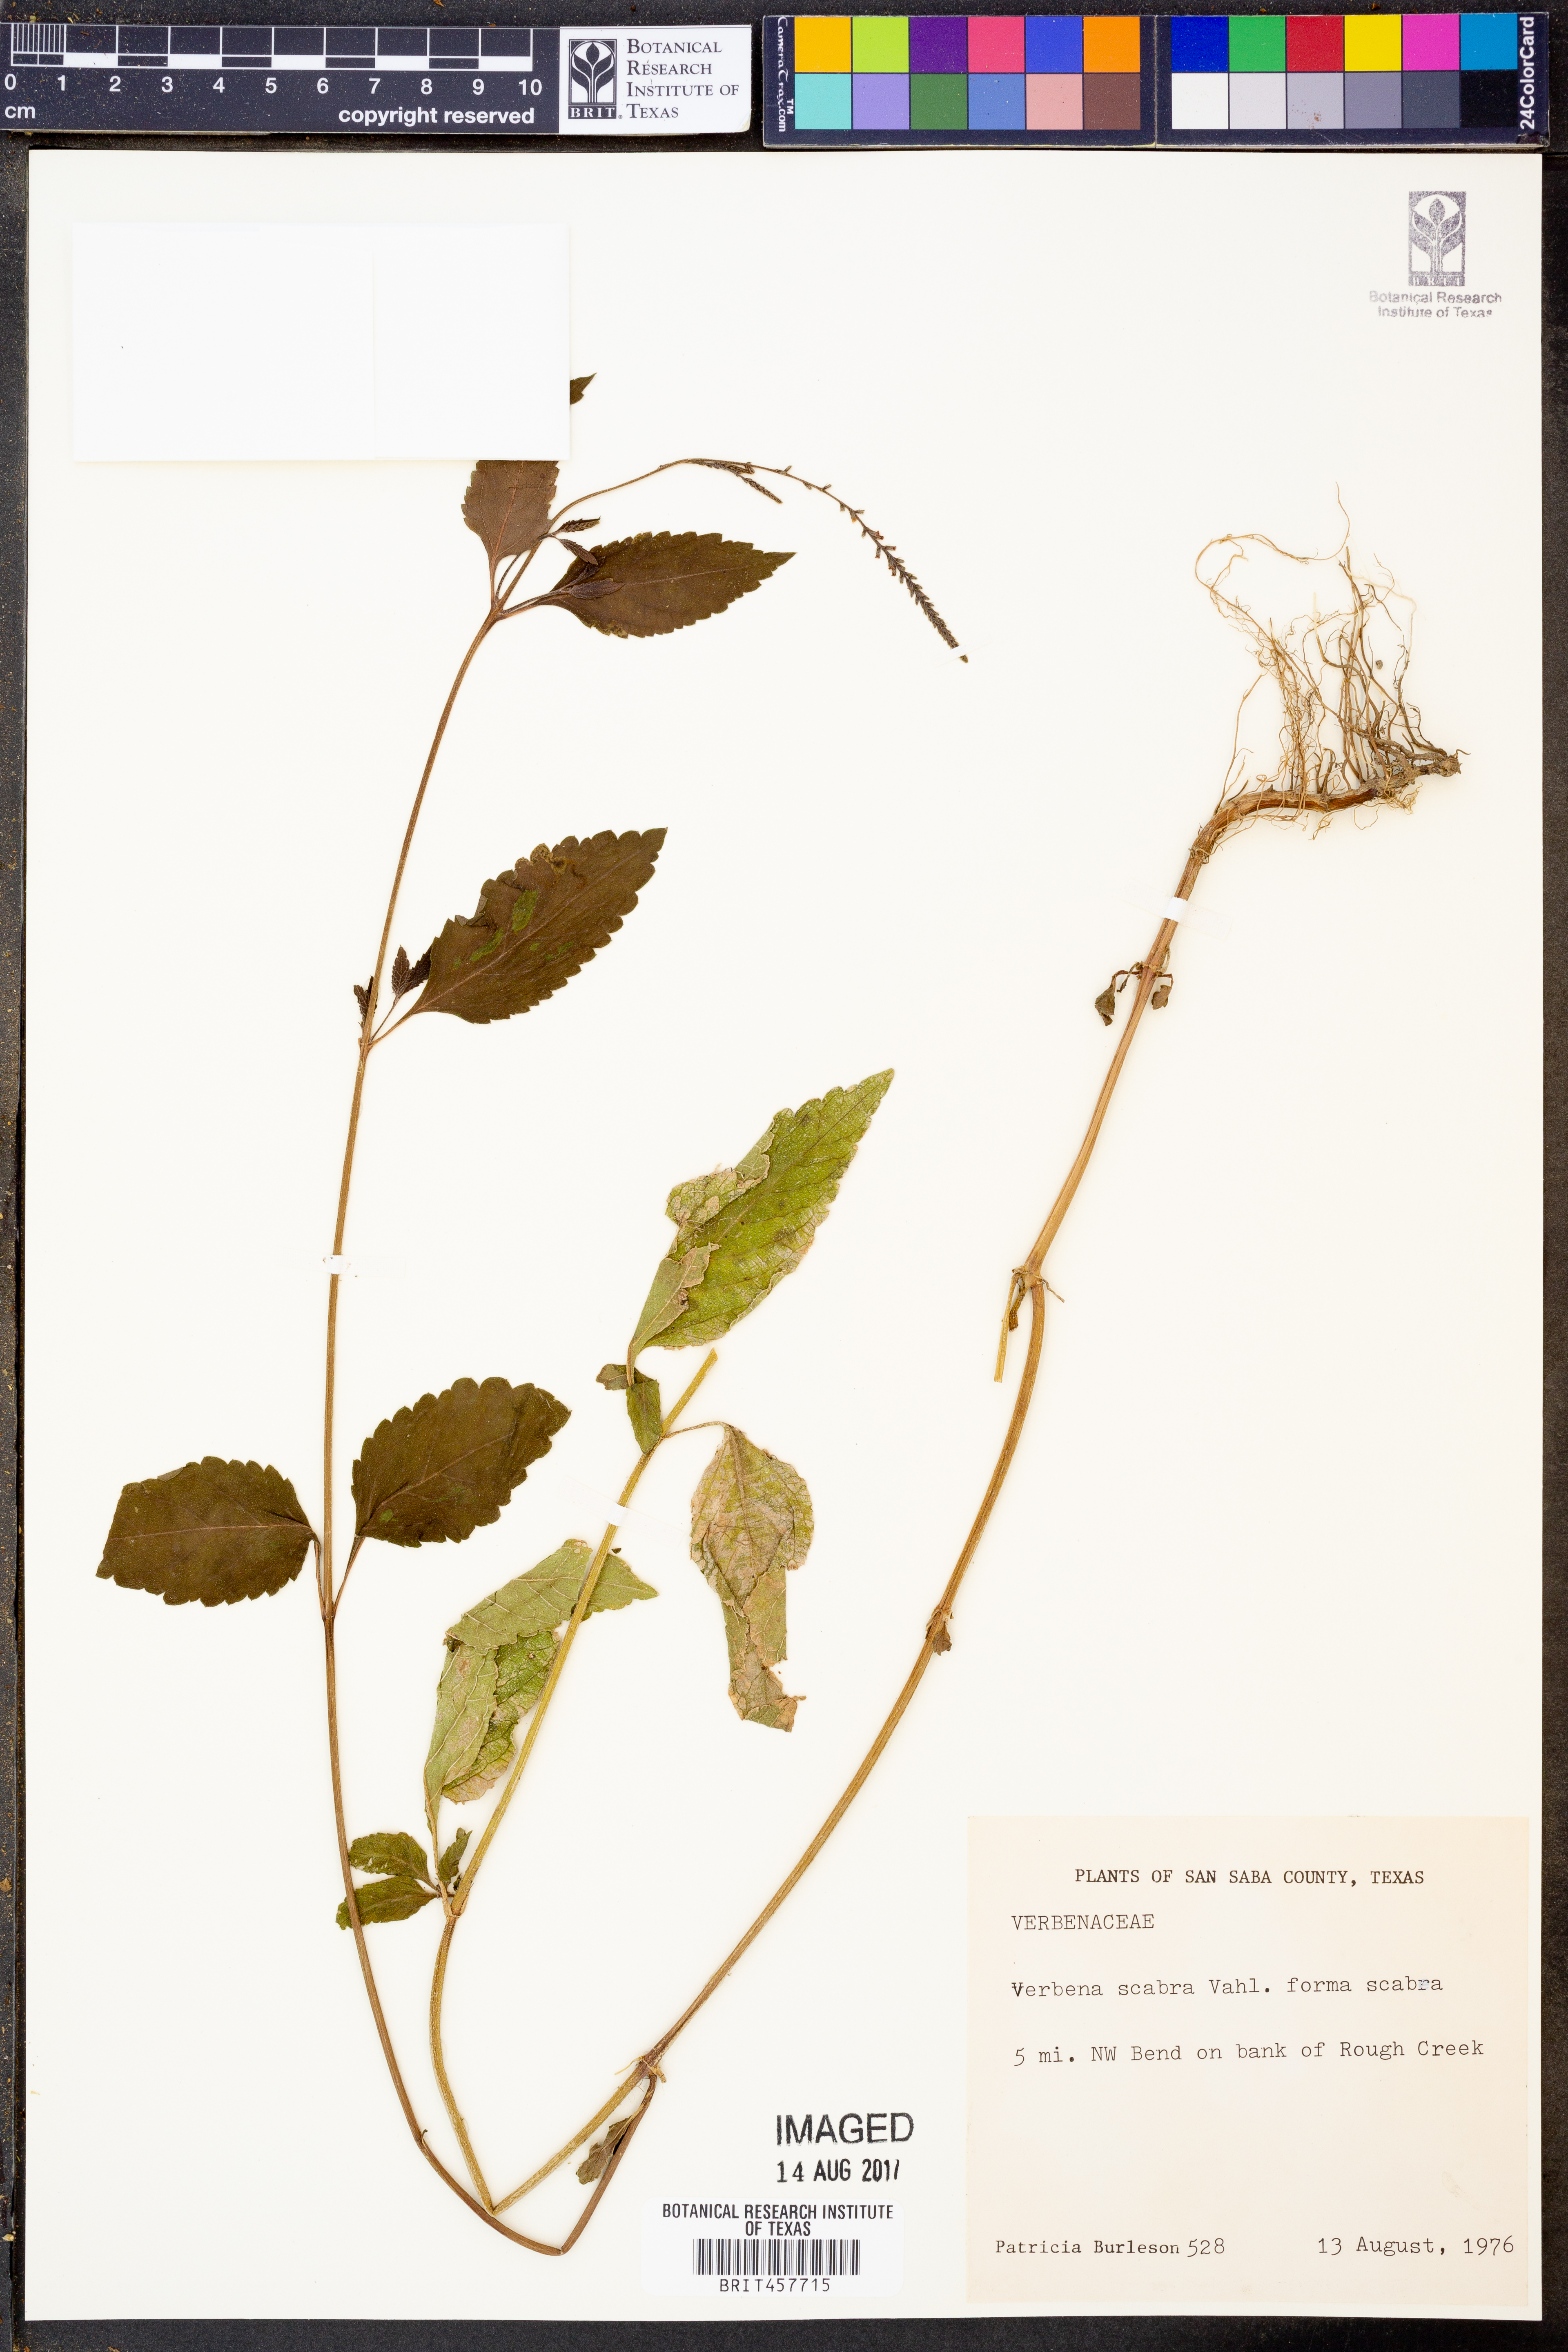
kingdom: Plantae
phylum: Tracheophyta
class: Magnoliopsida
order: Lamiales
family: Verbenaceae
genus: Verbena
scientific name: Verbena scabra
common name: Sandpaper vervain
